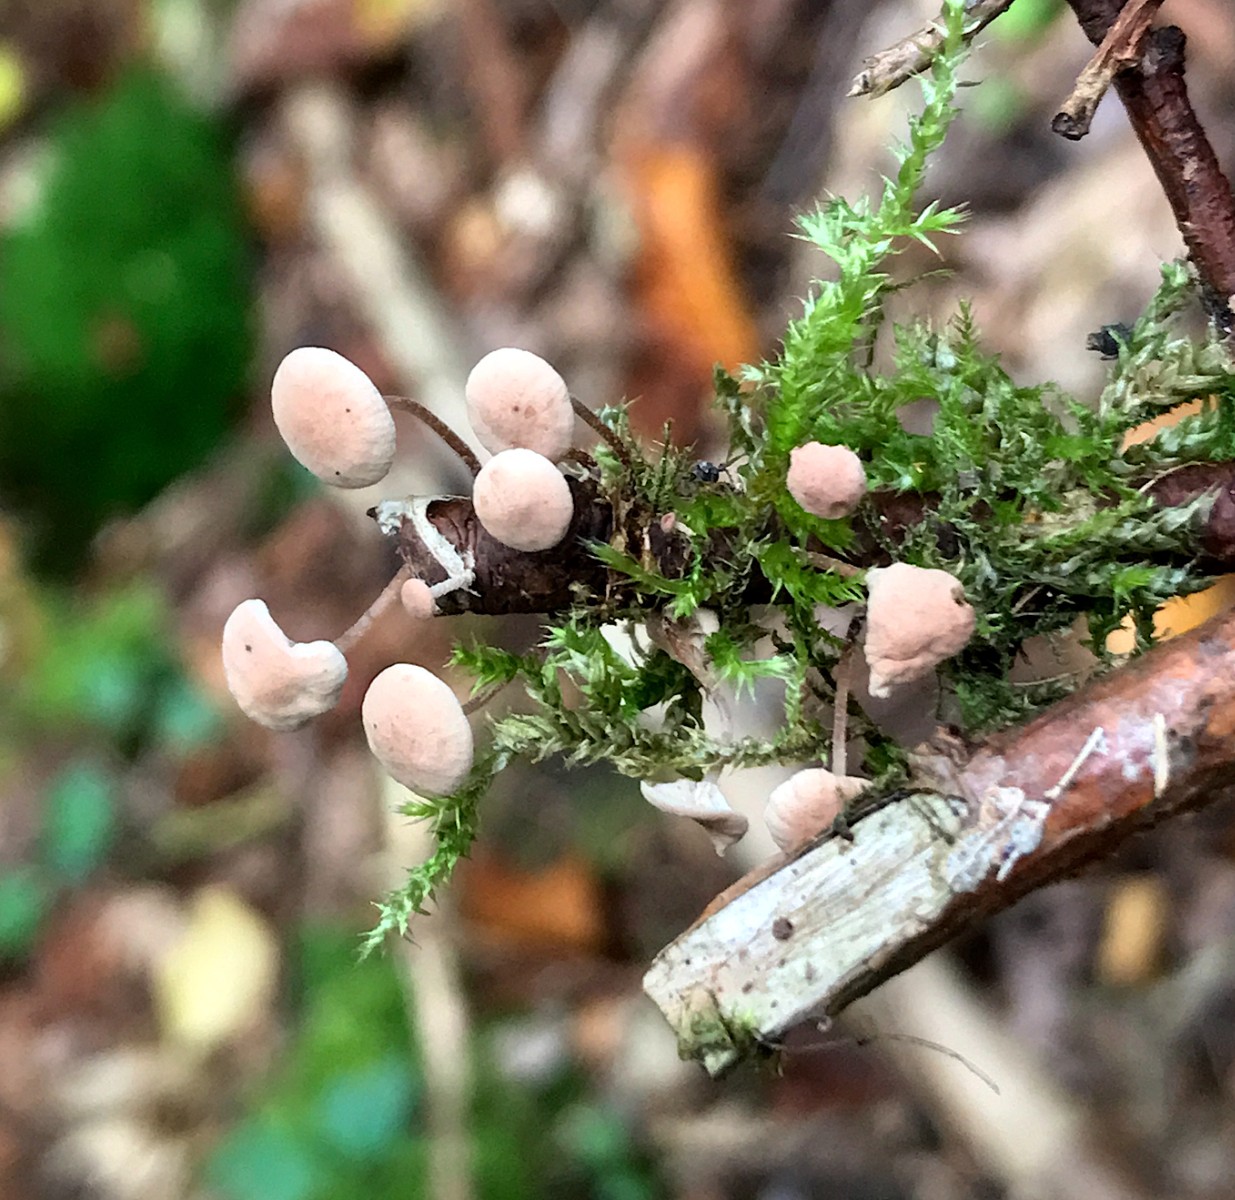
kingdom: Fungi
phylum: Basidiomycota
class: Agaricomycetes
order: Agaricales
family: Omphalotaceae
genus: Collybiopsis
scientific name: Collybiopsis ramealis
